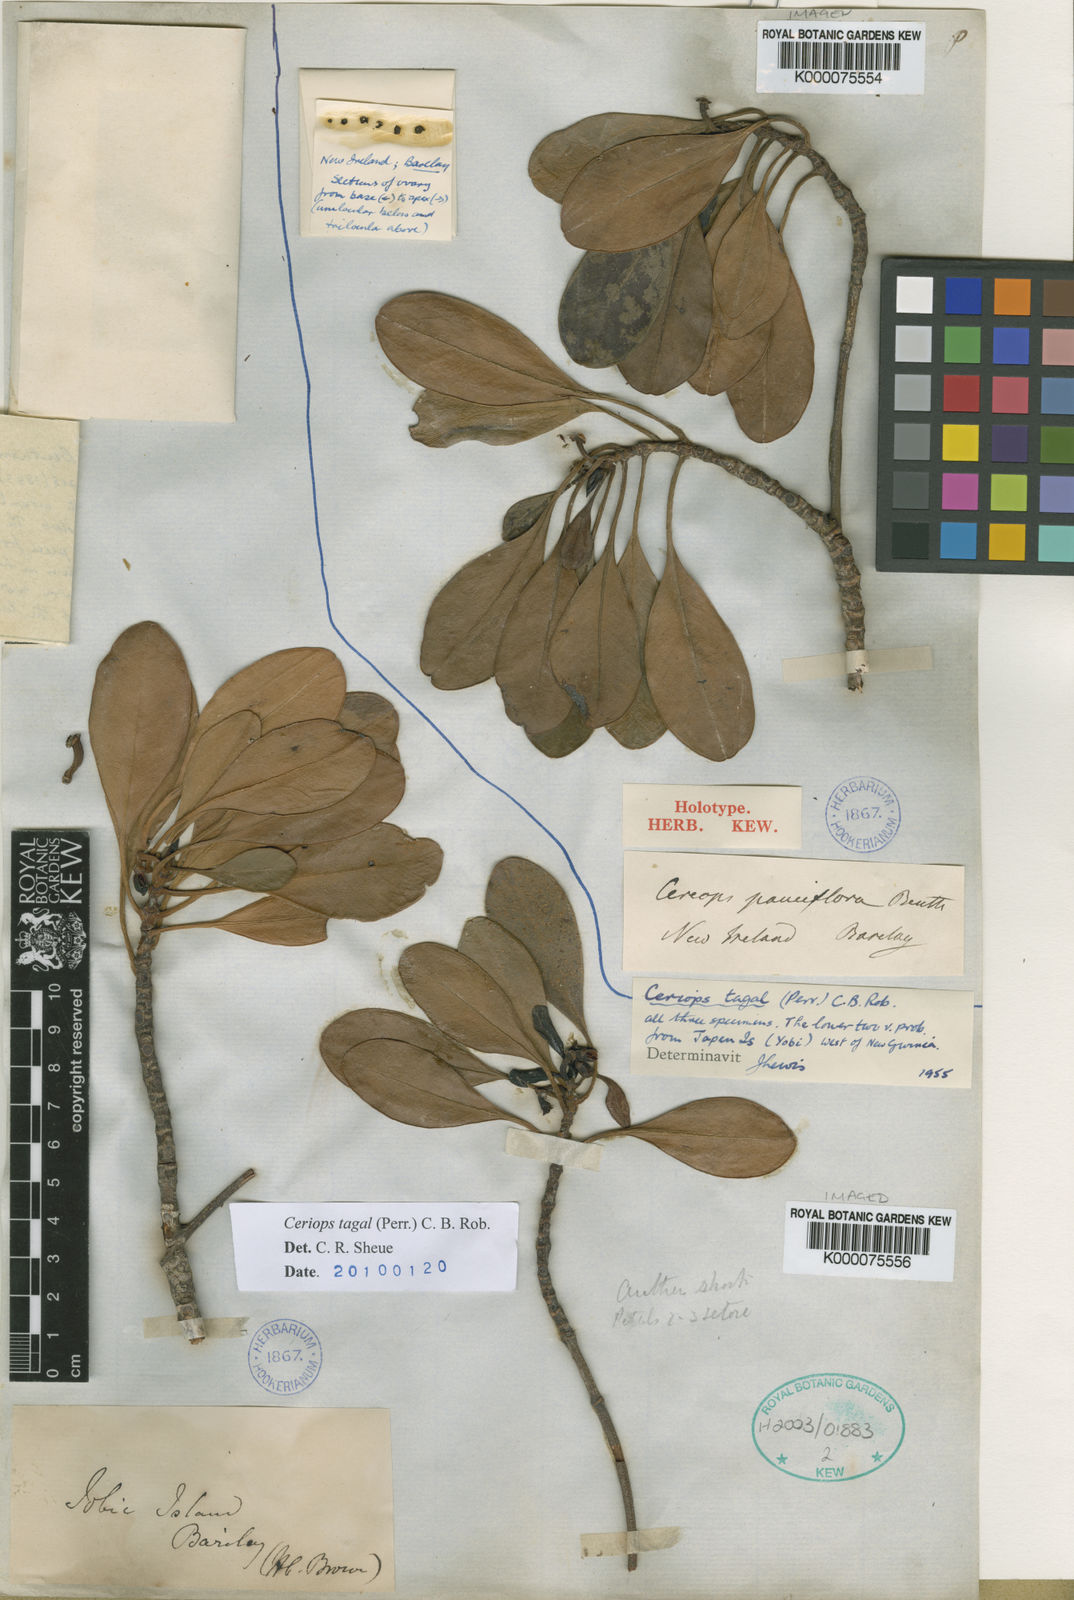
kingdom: Plantae
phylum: Tracheophyta
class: Magnoliopsida
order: Malpighiales
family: Rhizophoraceae
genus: Ceriops
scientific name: Ceriops tagal
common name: Spurred mangrove
